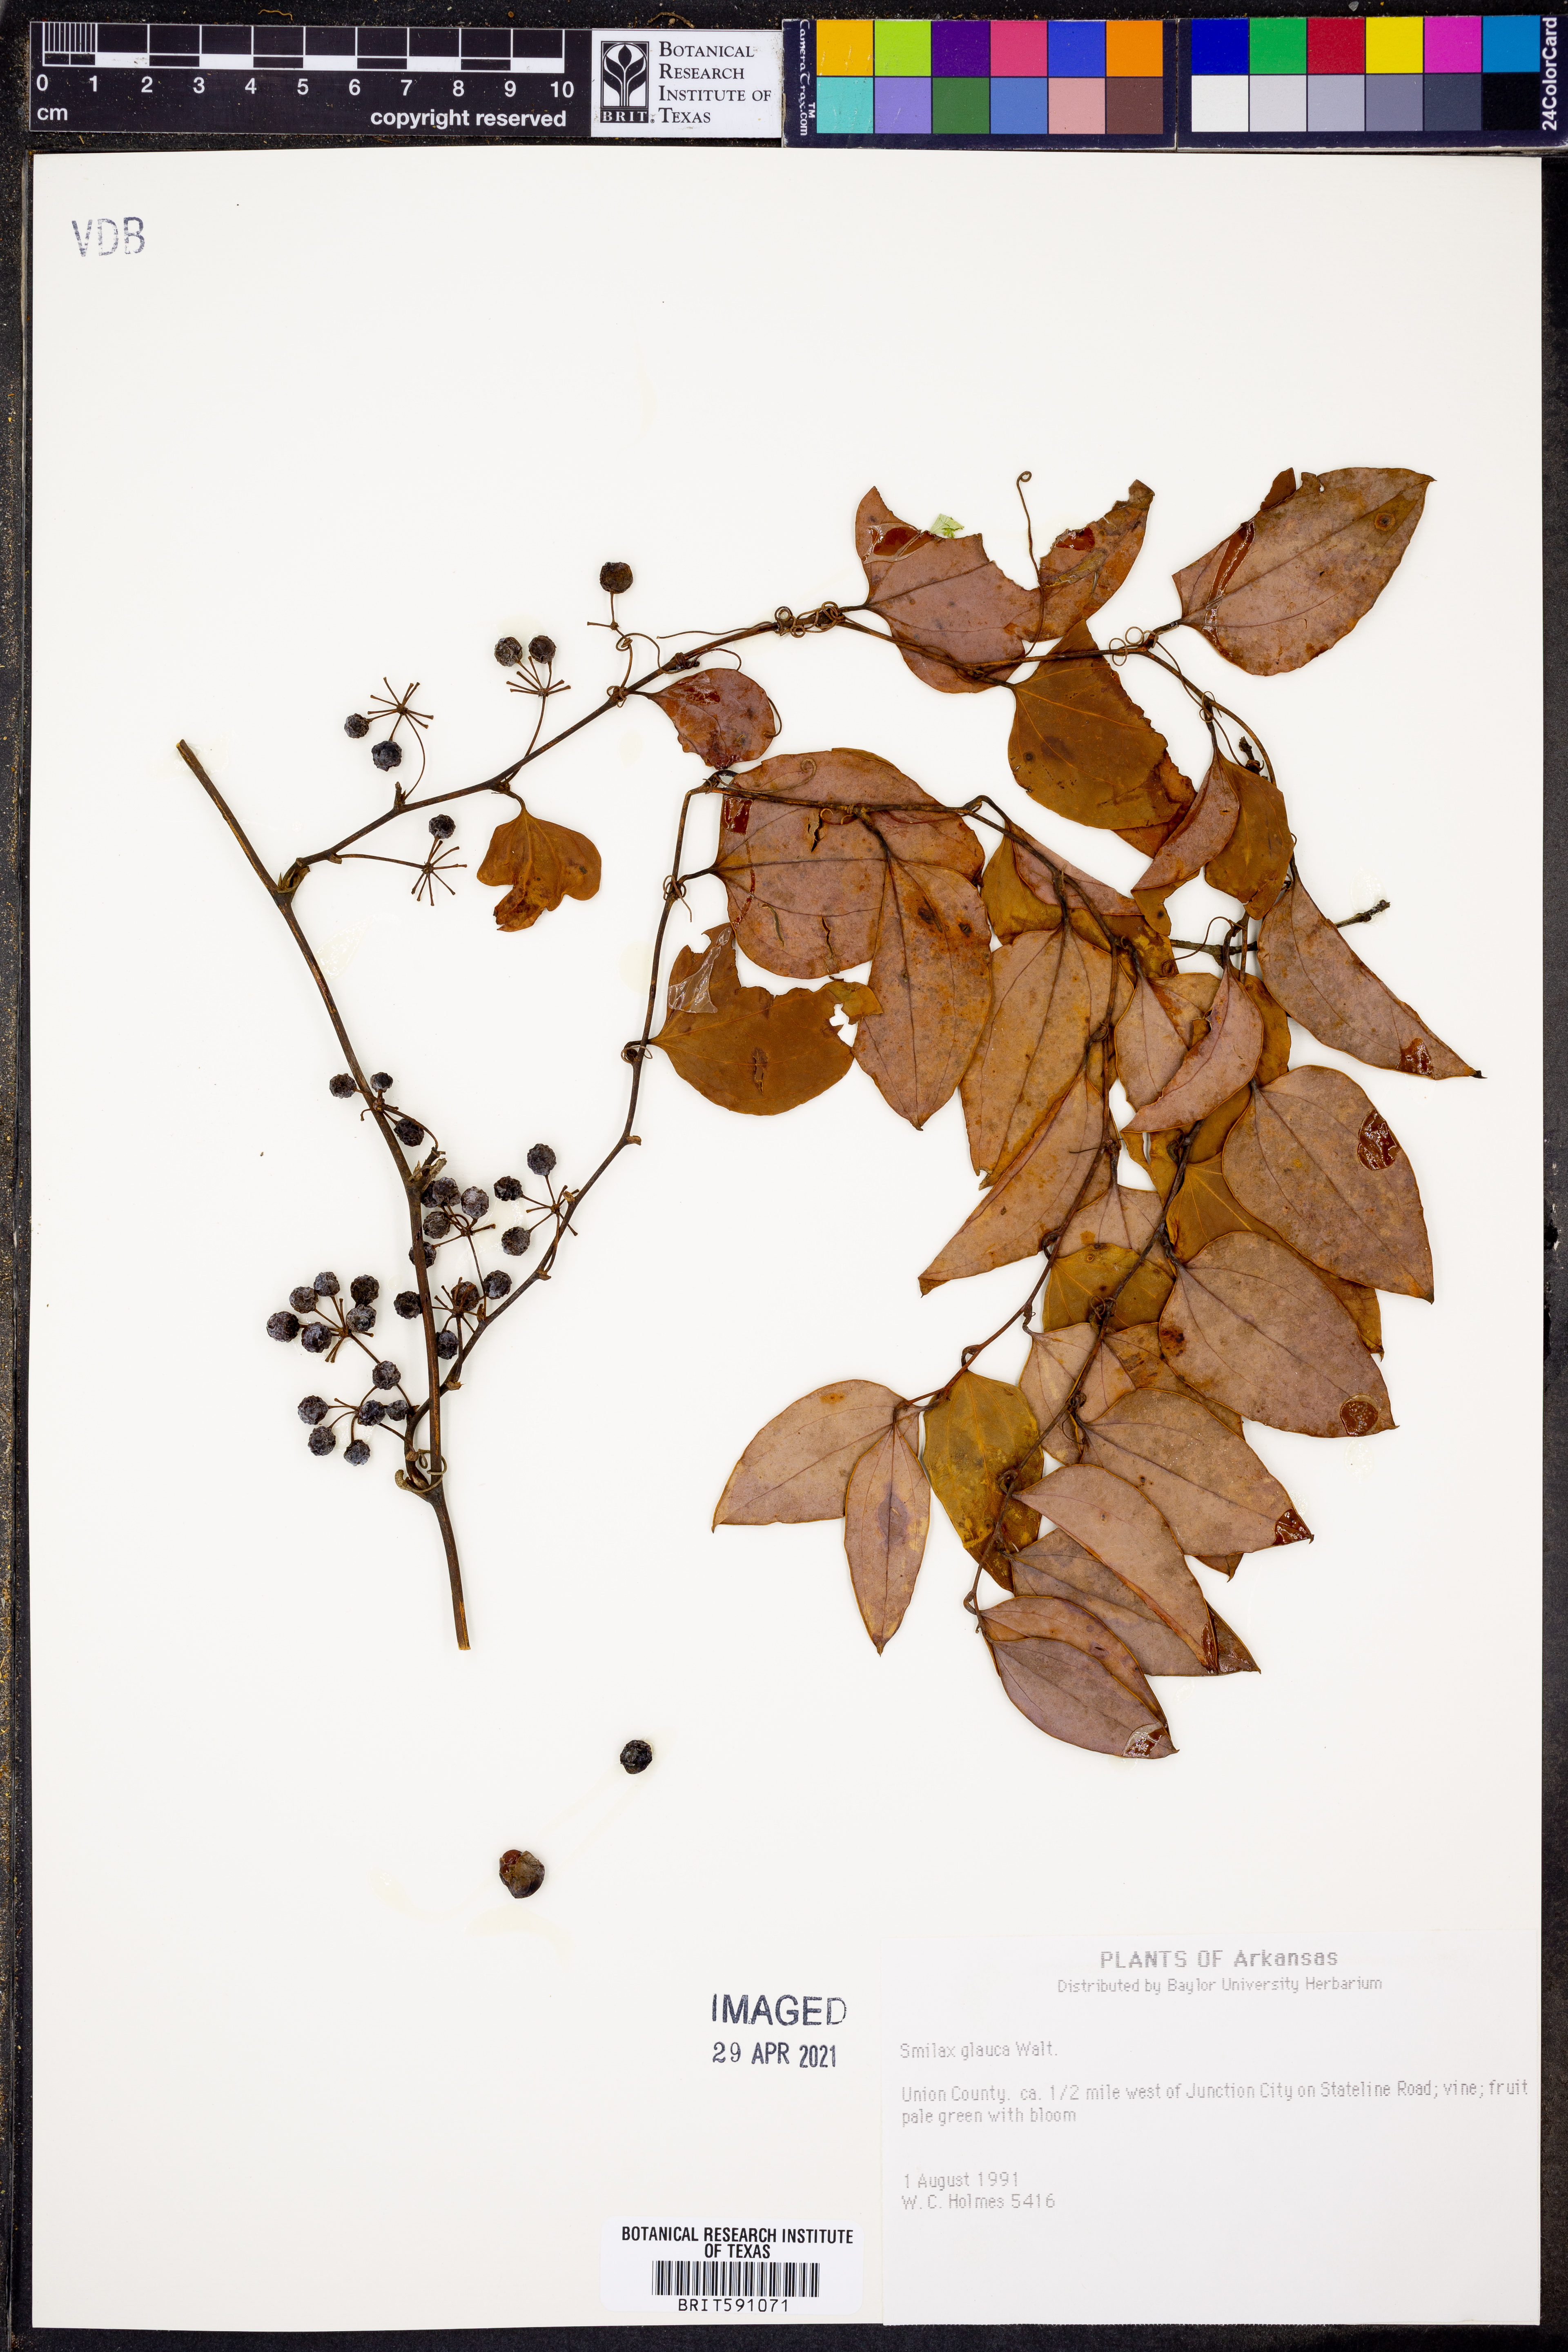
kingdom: Plantae
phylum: Tracheophyta
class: Liliopsida
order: Liliales
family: Smilacaceae
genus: Smilax
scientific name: Smilax glauca
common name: Cat greenbrier
